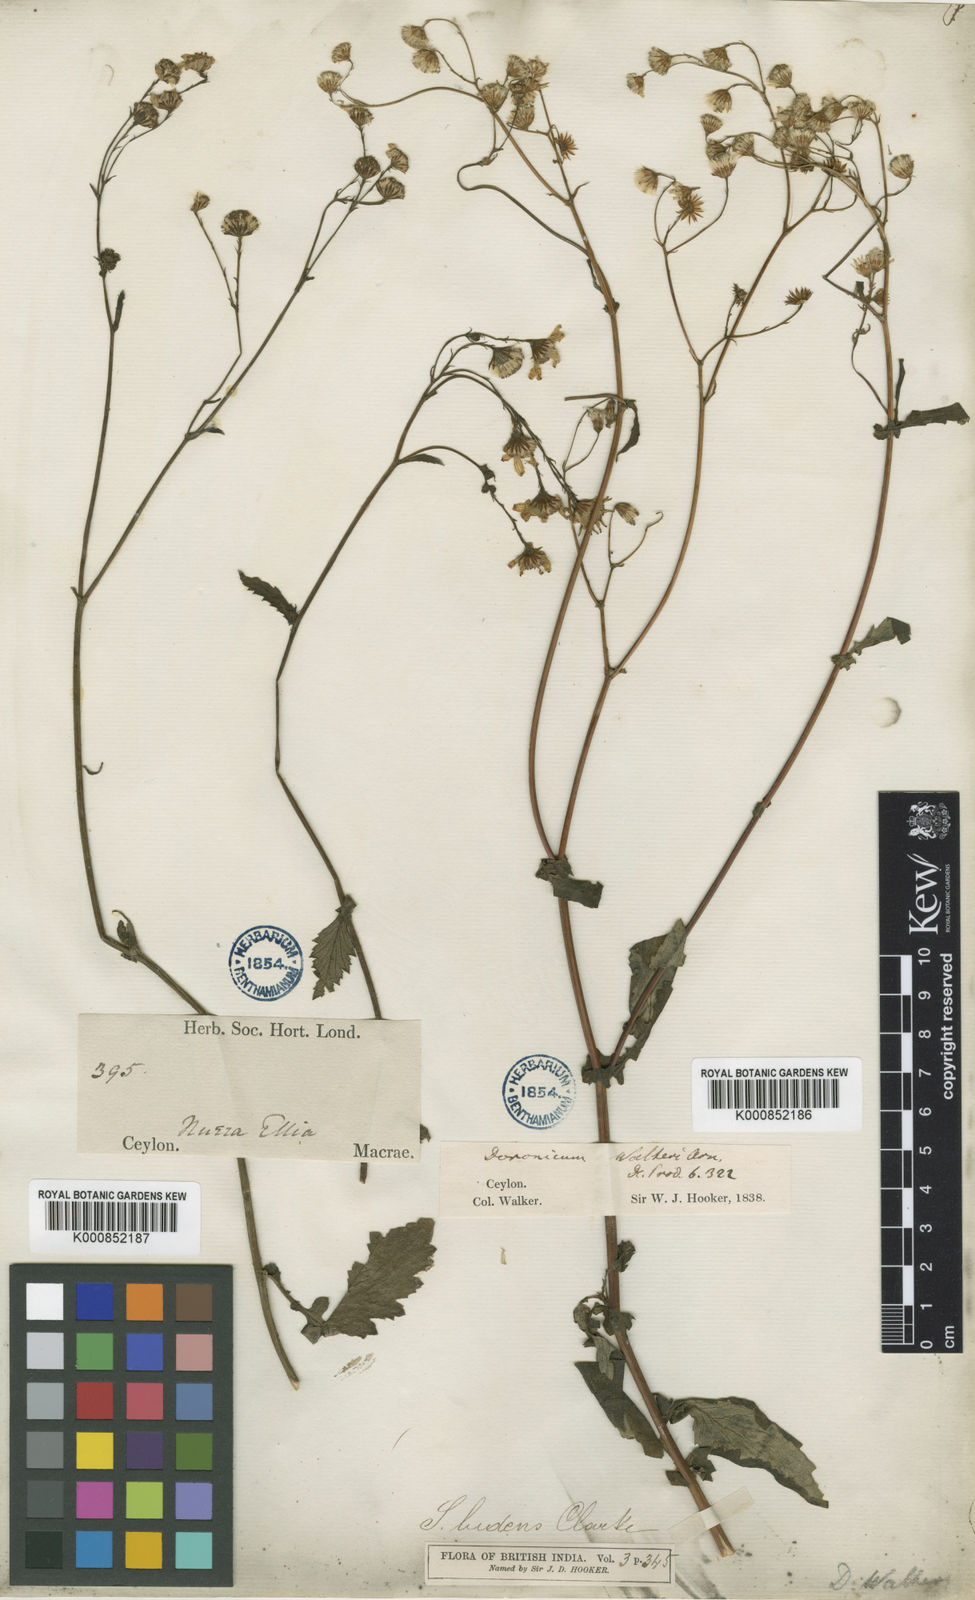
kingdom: Plantae
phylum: Tracheophyta
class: Magnoliopsida
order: Asterales
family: Asteraceae
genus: Senecio
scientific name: Senecio ludens
